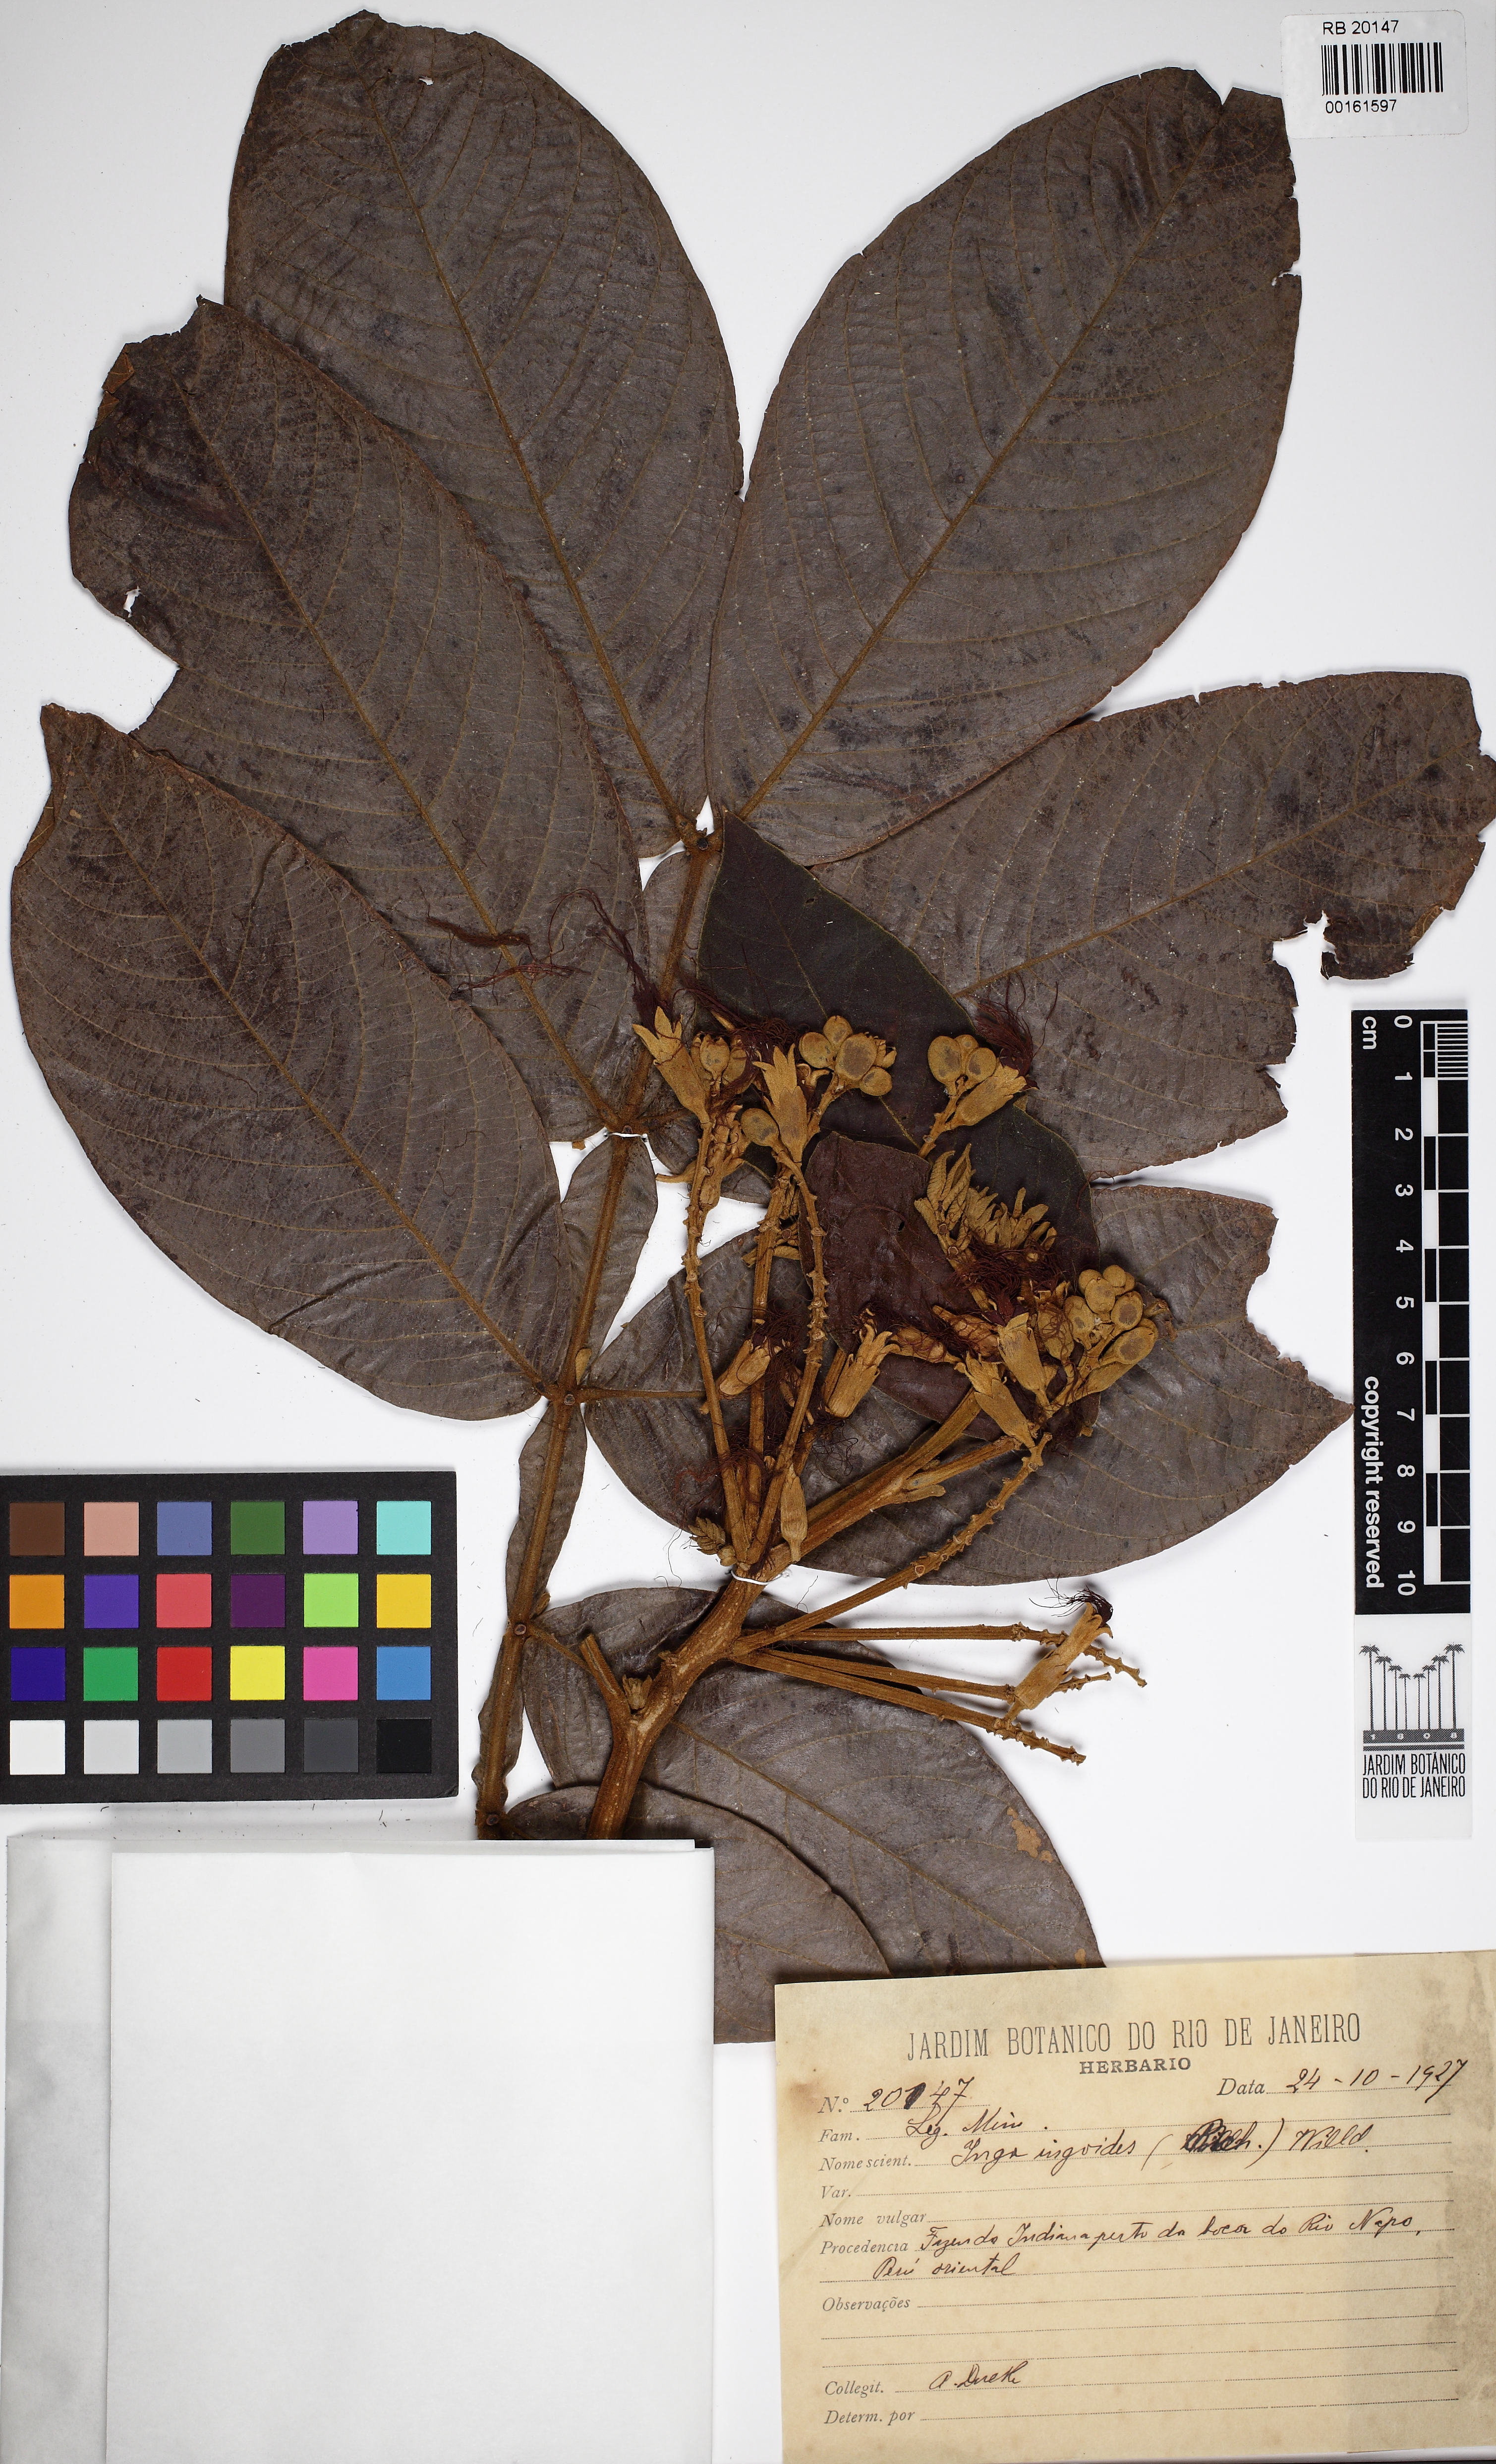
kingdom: Plantae
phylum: Tracheophyta
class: Magnoliopsida
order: Fabales
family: Fabaceae
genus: Inga
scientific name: Inga ingoides
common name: Spanish ash
